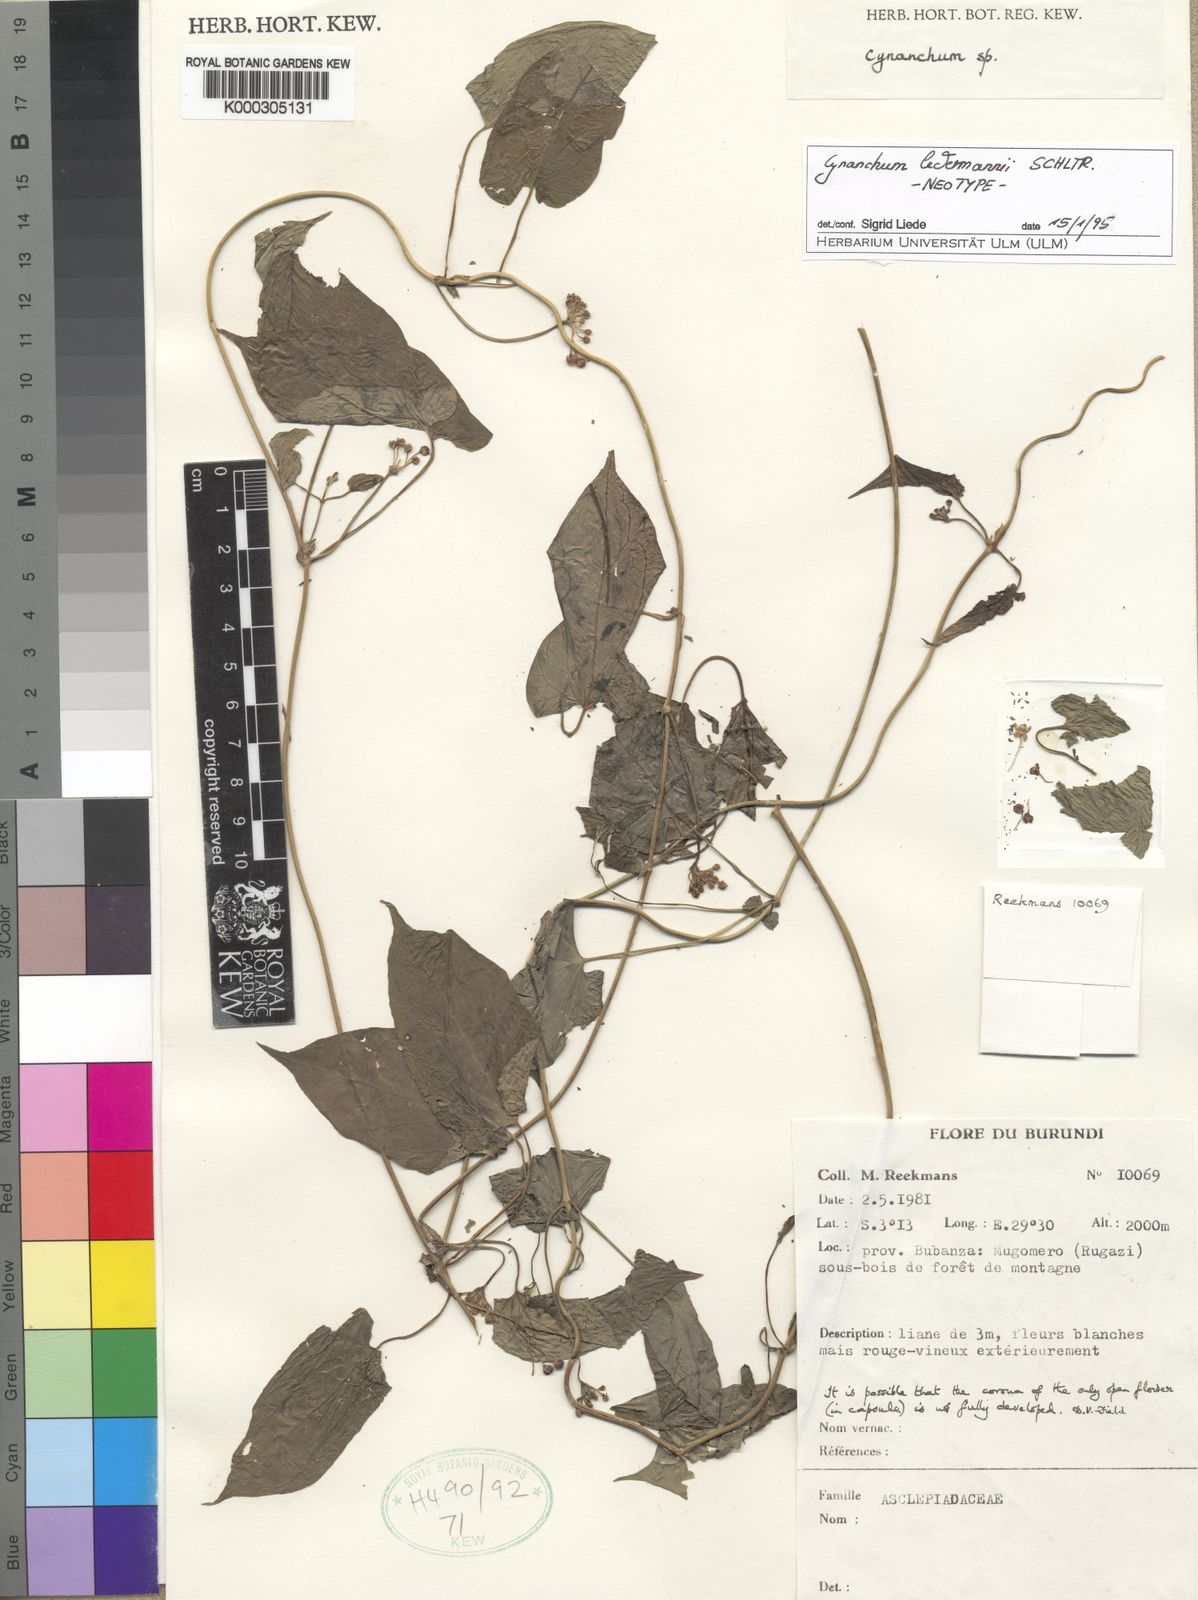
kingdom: Plantae
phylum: Tracheophyta
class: Magnoliopsida
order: Gentianales
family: Apocynaceae
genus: Cynanchum
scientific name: Cynanchum ledermannii
